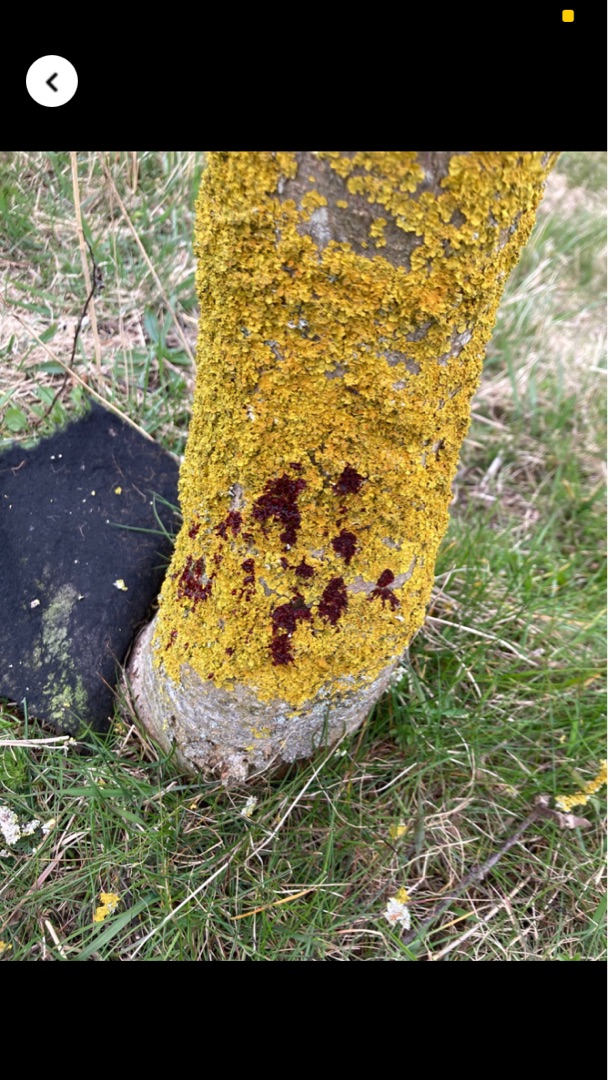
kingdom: Fungi
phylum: Ascomycota
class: Lecanoromycetes
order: Teloschistales
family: Teloschistaceae
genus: Xanthoria
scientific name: Xanthoria parietina
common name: Almindelig væggelav
